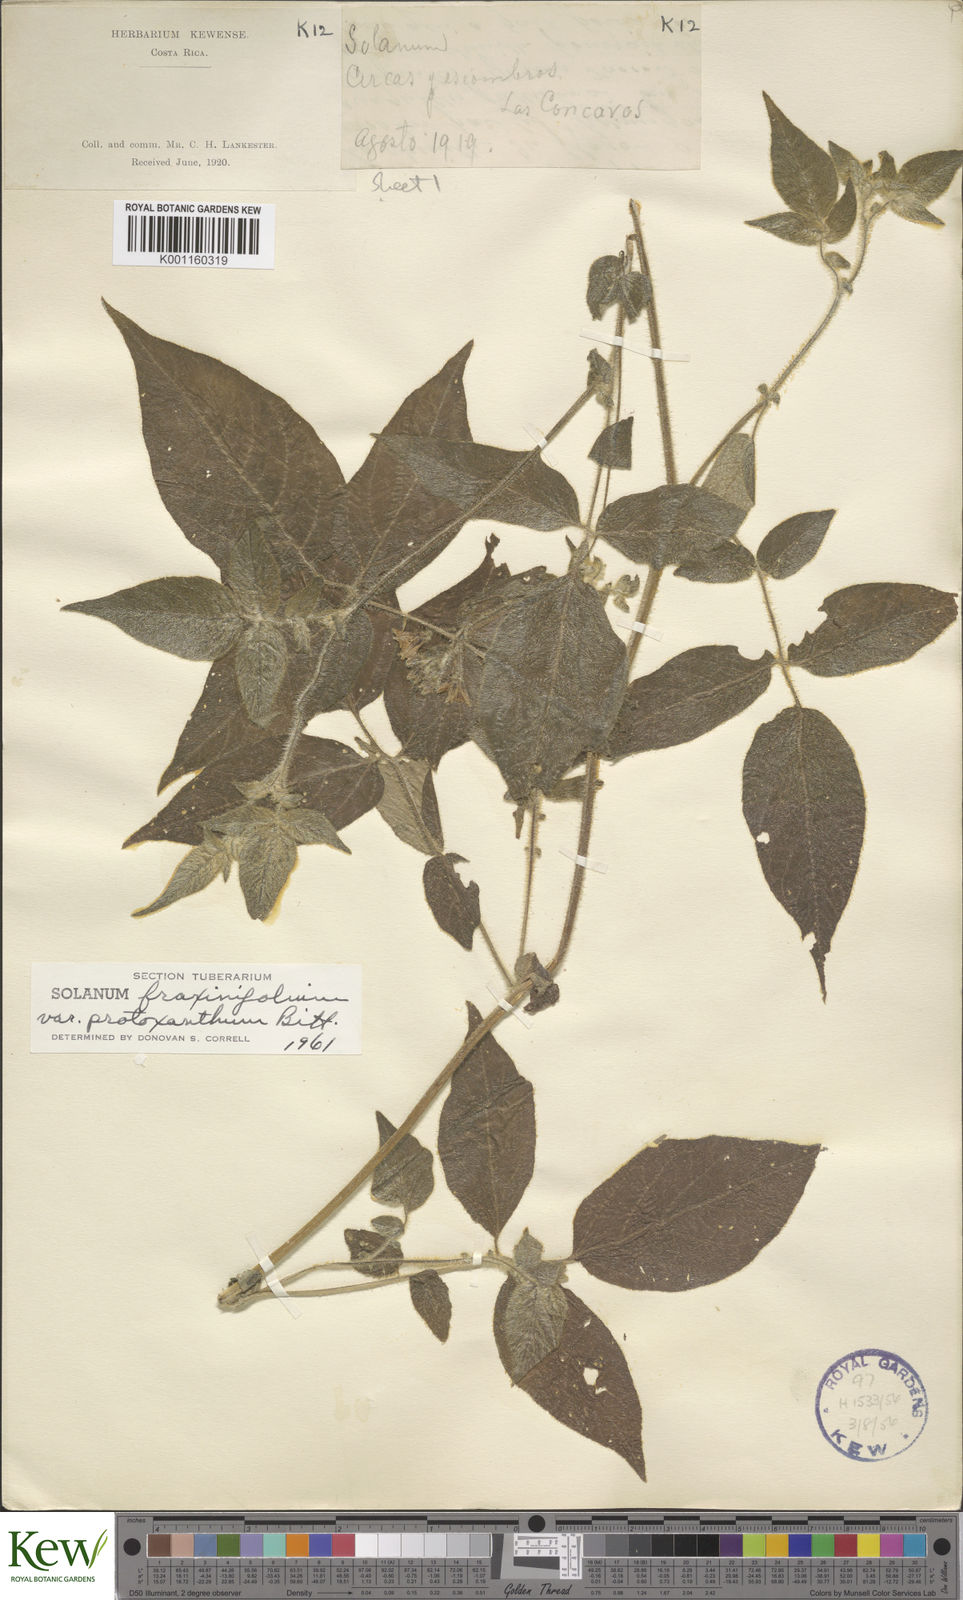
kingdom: Plantae
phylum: Tracheophyta
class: Magnoliopsida
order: Solanales
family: Solanaceae
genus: Solanum
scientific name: Solanum fraxinifolium
